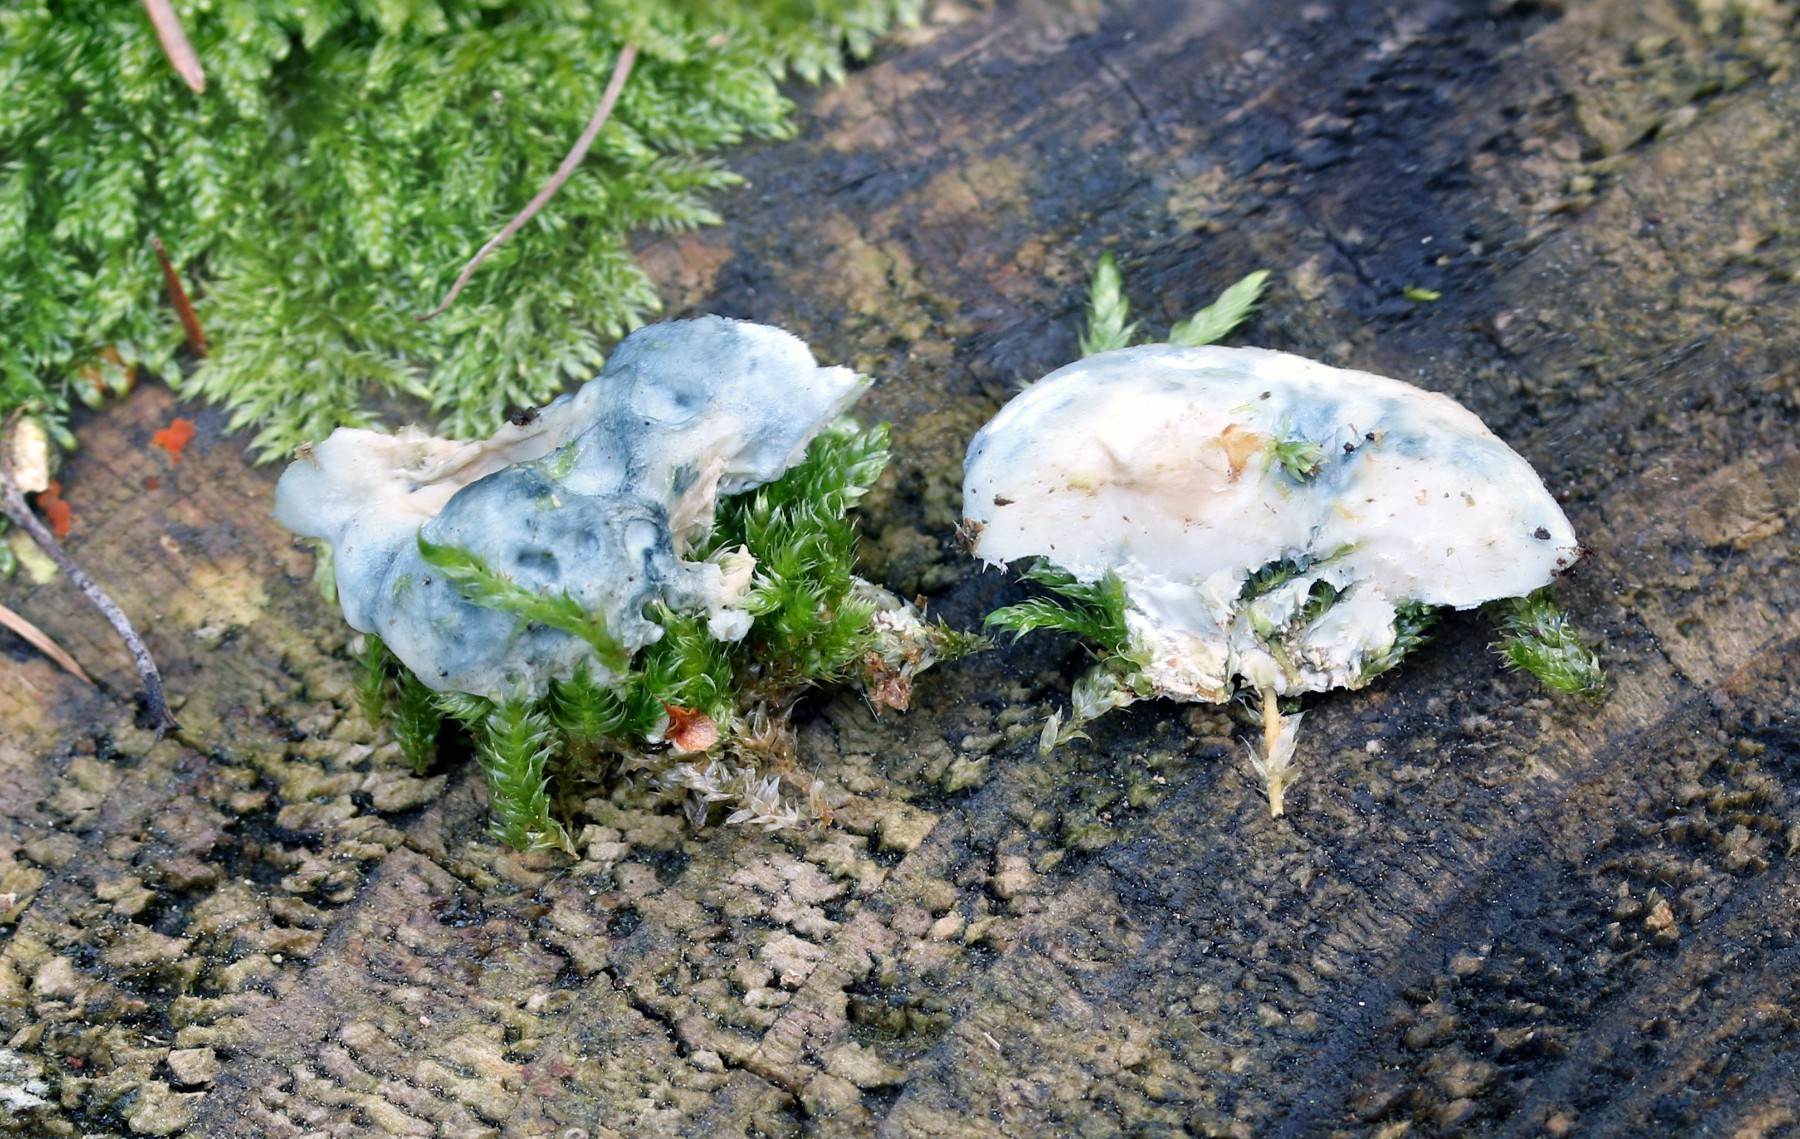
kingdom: Fungi
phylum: Basidiomycota
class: Agaricomycetes
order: Polyporales
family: Polyporaceae
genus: Cyanosporus
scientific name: Cyanosporus caesius
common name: blålig kødporesvamp
